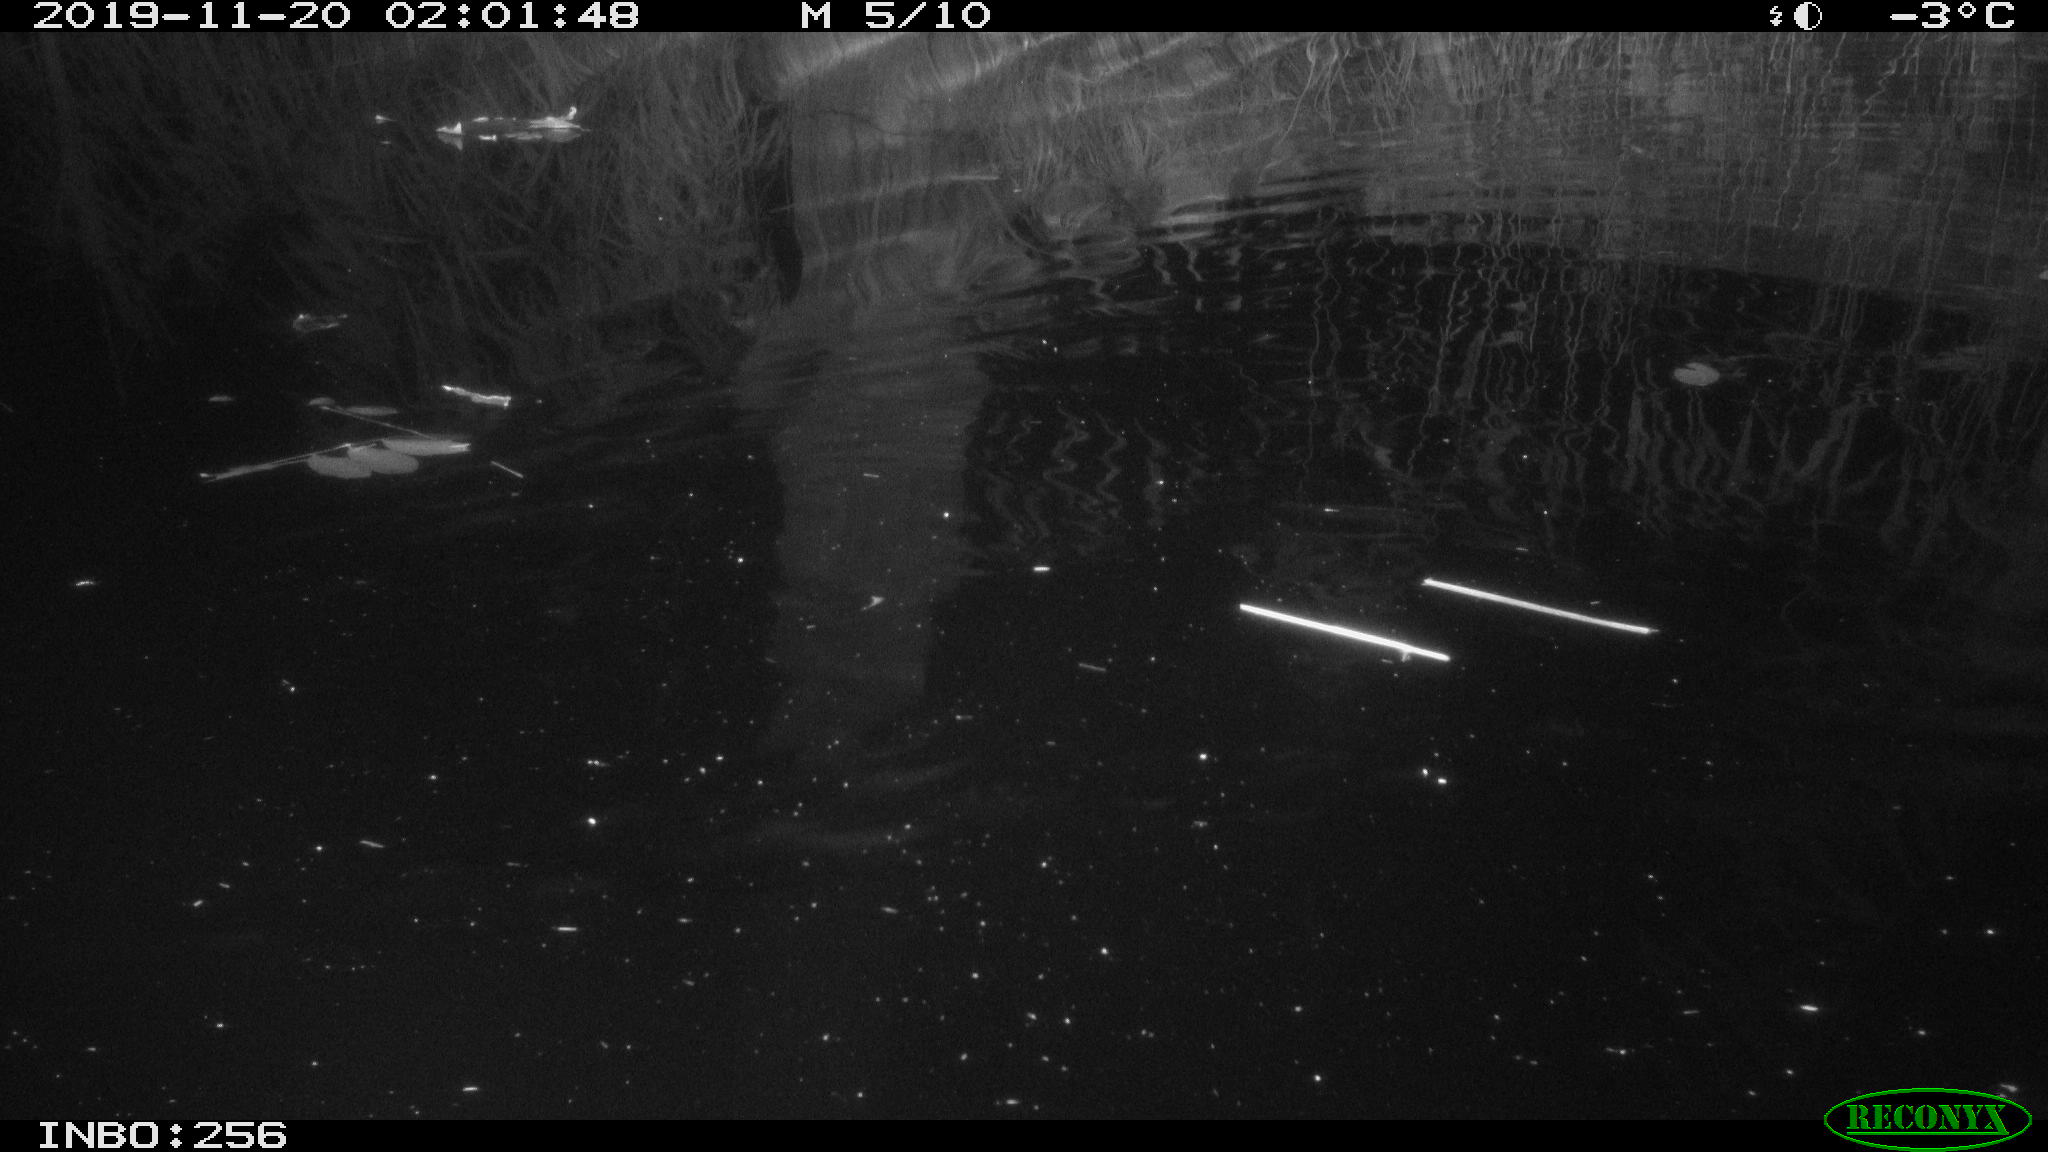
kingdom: Animalia
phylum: Chordata
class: Mammalia
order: Rodentia
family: Muridae
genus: Rattus
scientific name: Rattus norvegicus
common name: Brown rat
